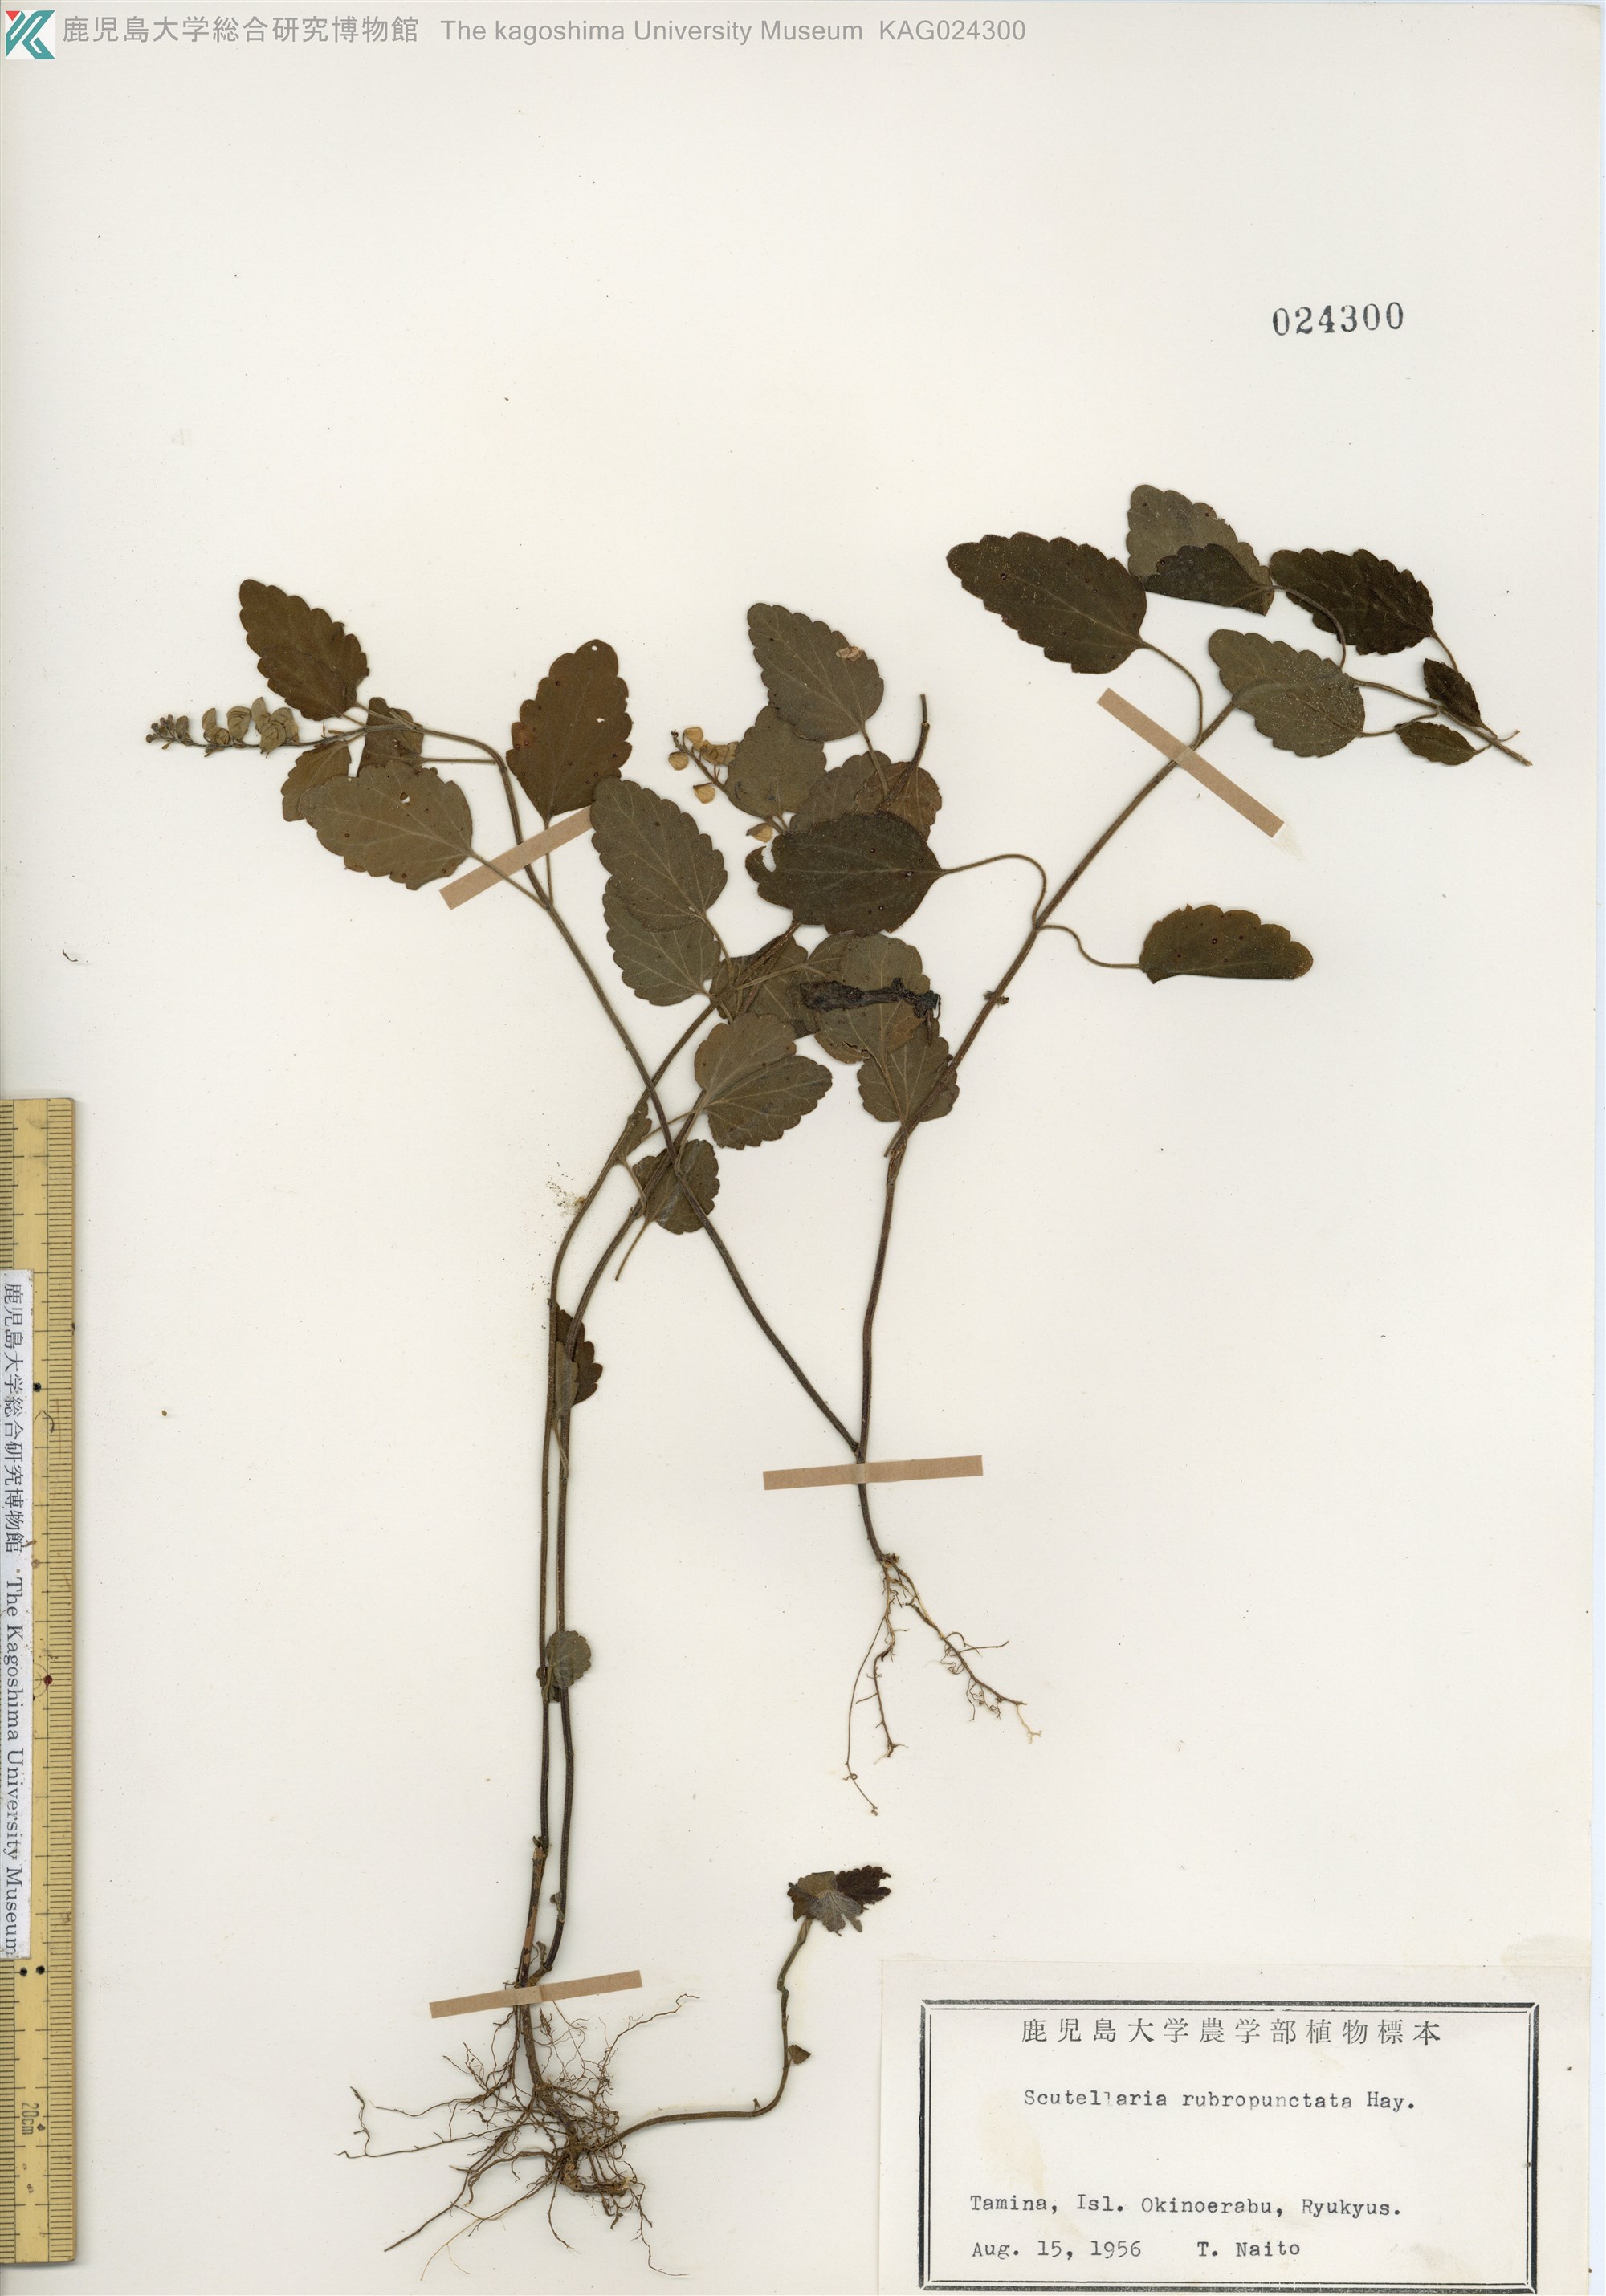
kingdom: Plantae
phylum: Tracheophyta
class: Magnoliopsida
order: Lamiales
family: Lamiaceae
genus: Scutellaria
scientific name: Scutellaria rubropunctata
